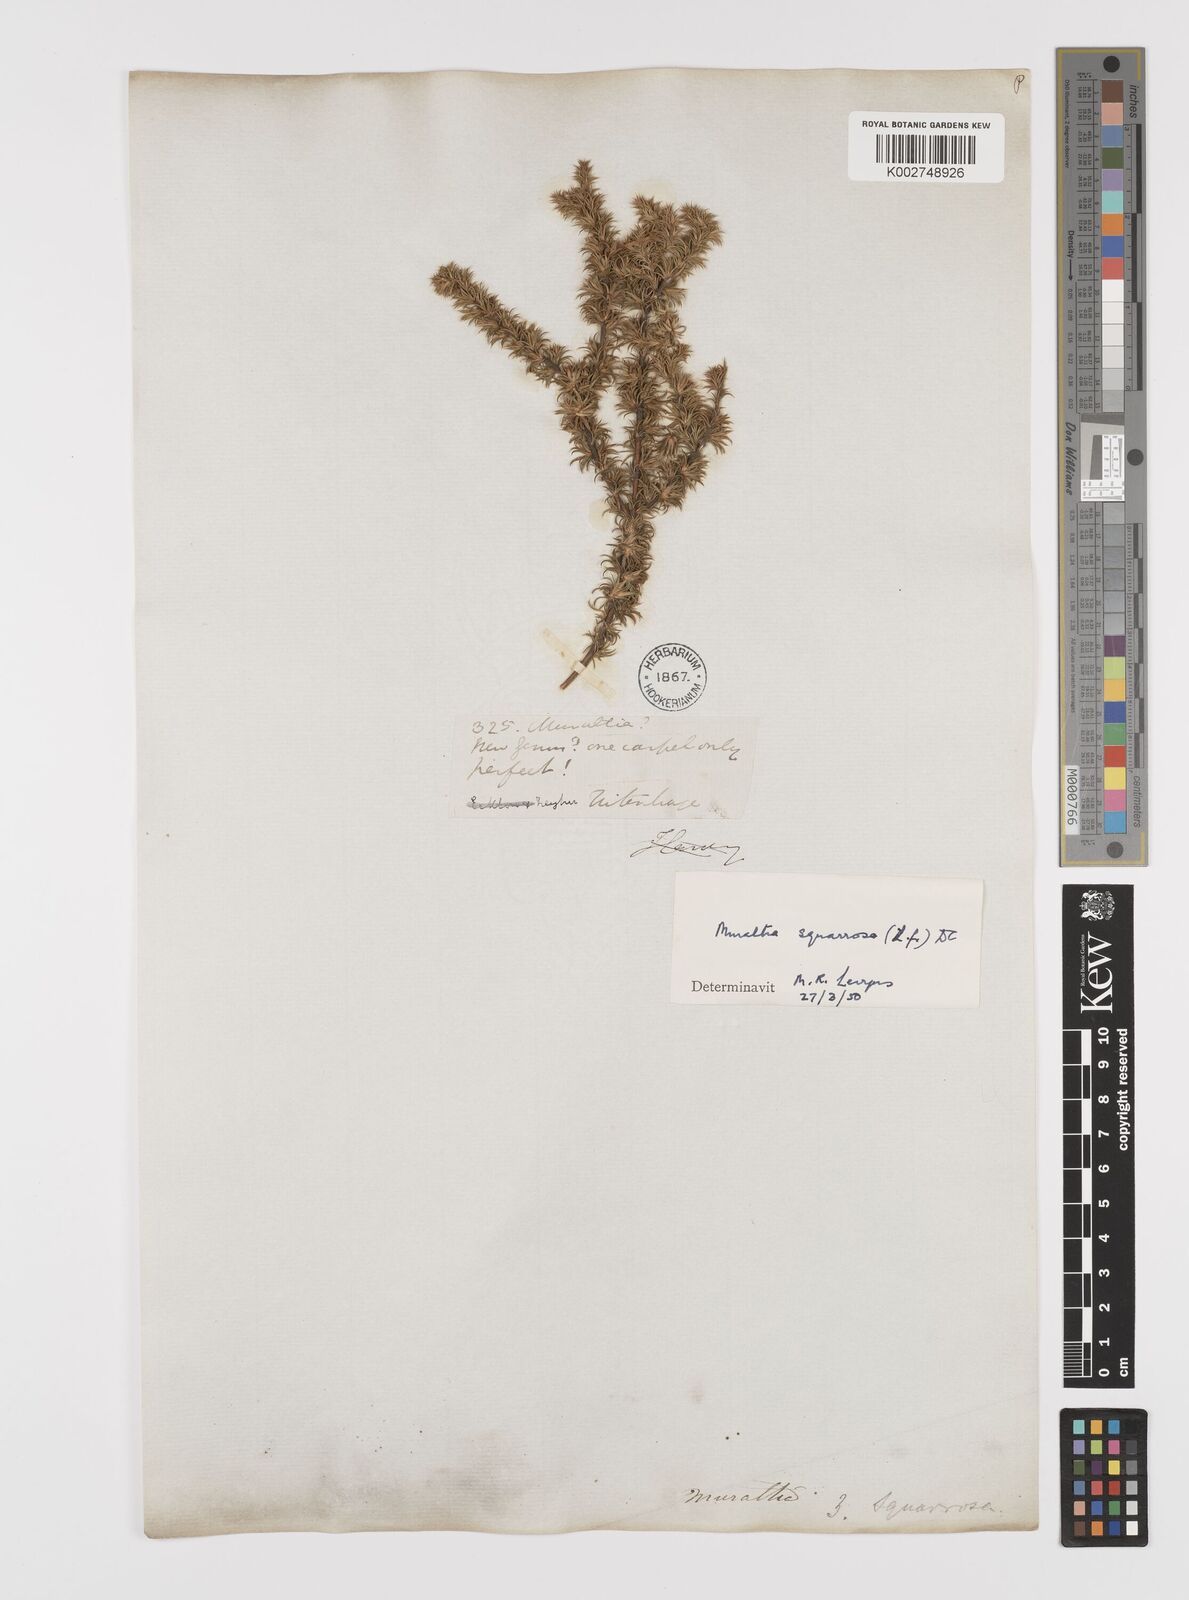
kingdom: Plantae
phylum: Tracheophyta
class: Magnoliopsida
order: Fabales
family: Polygalaceae
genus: Muraltia
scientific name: Muraltia squarrosa
